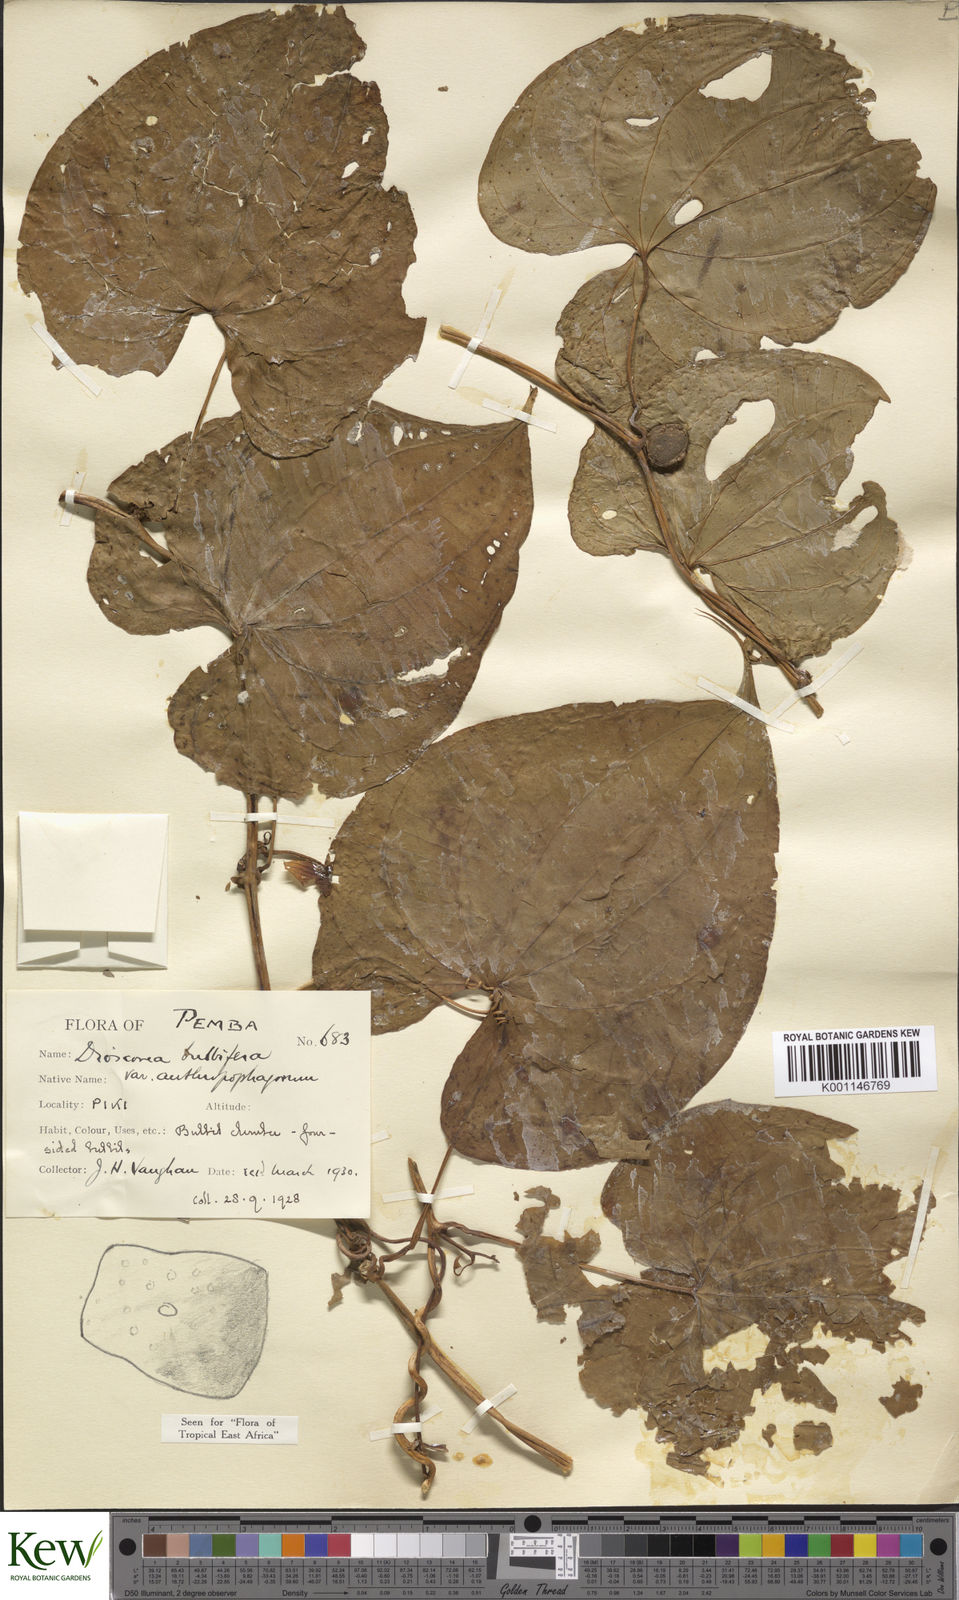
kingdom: Plantae
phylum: Tracheophyta
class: Liliopsida
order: Dioscoreales
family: Dioscoreaceae
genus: Dioscorea
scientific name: Dioscorea bulbifera
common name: Air yam
